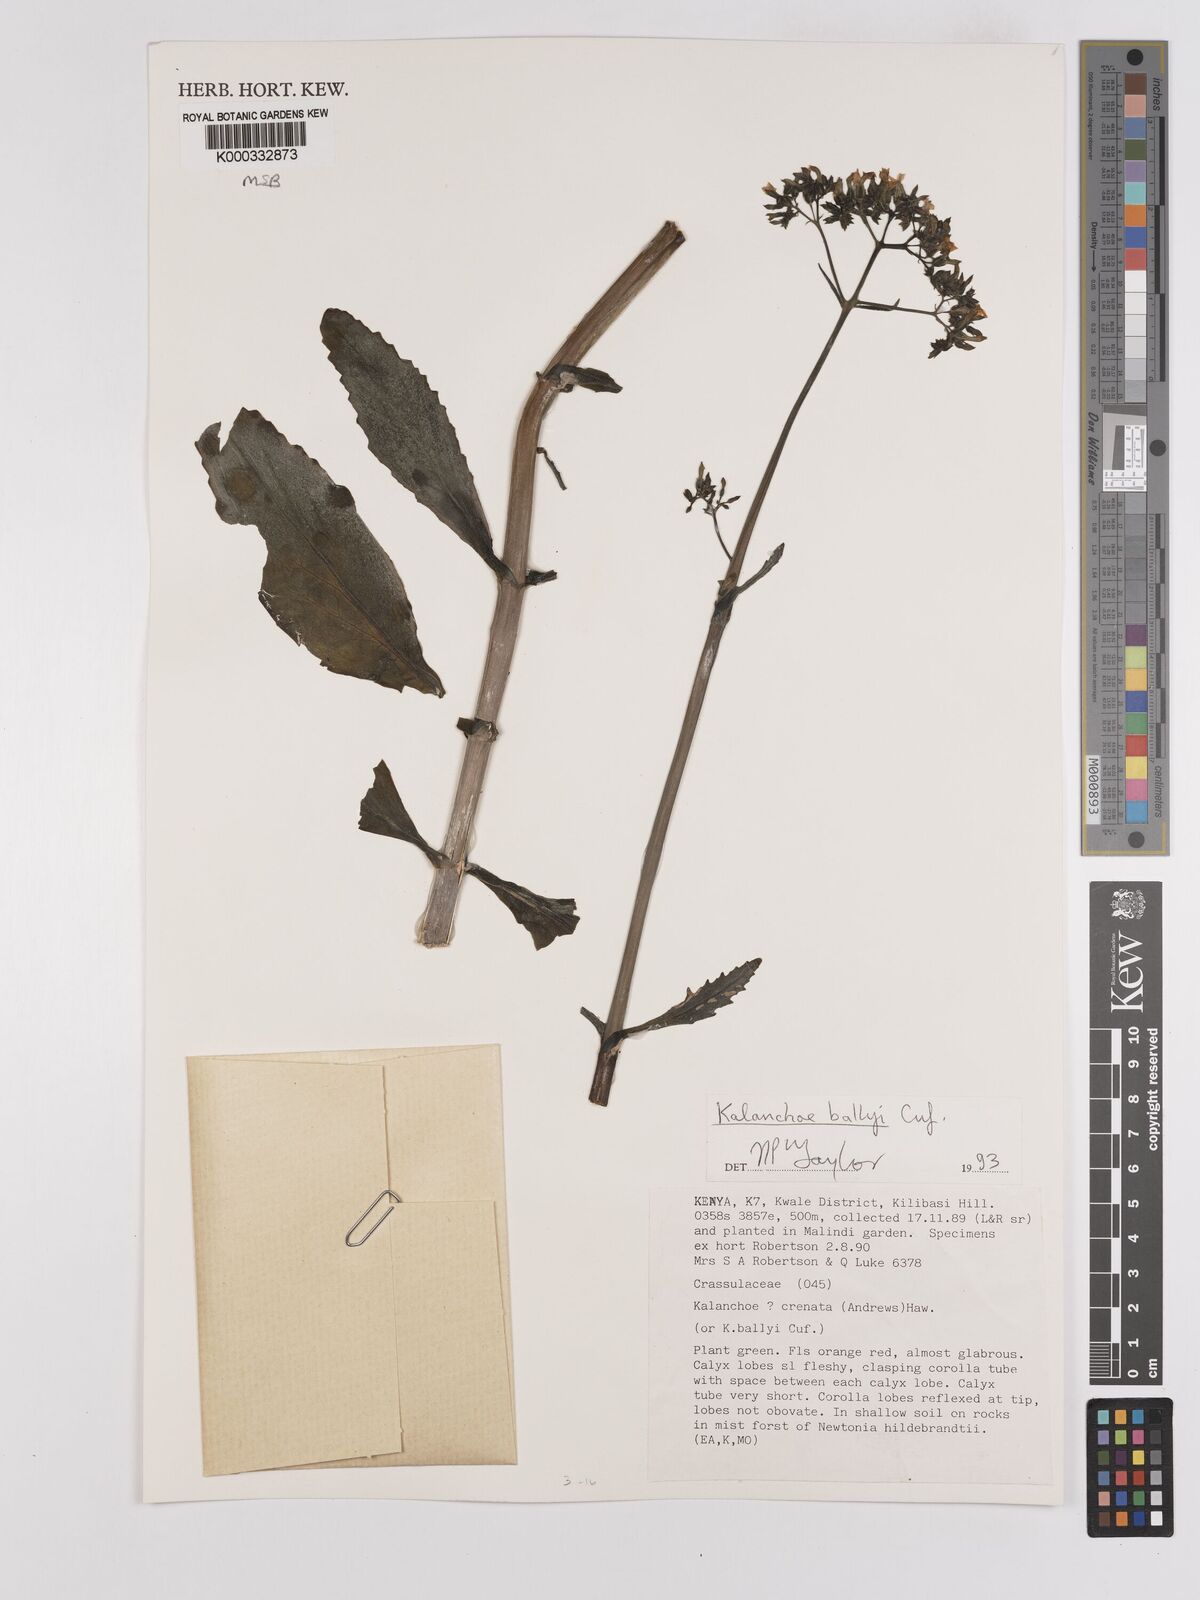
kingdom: Plantae
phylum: Tracheophyta
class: Magnoliopsida
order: Saxifragales
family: Crassulaceae
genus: Kalanchoe
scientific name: Kalanchoe ballyi
